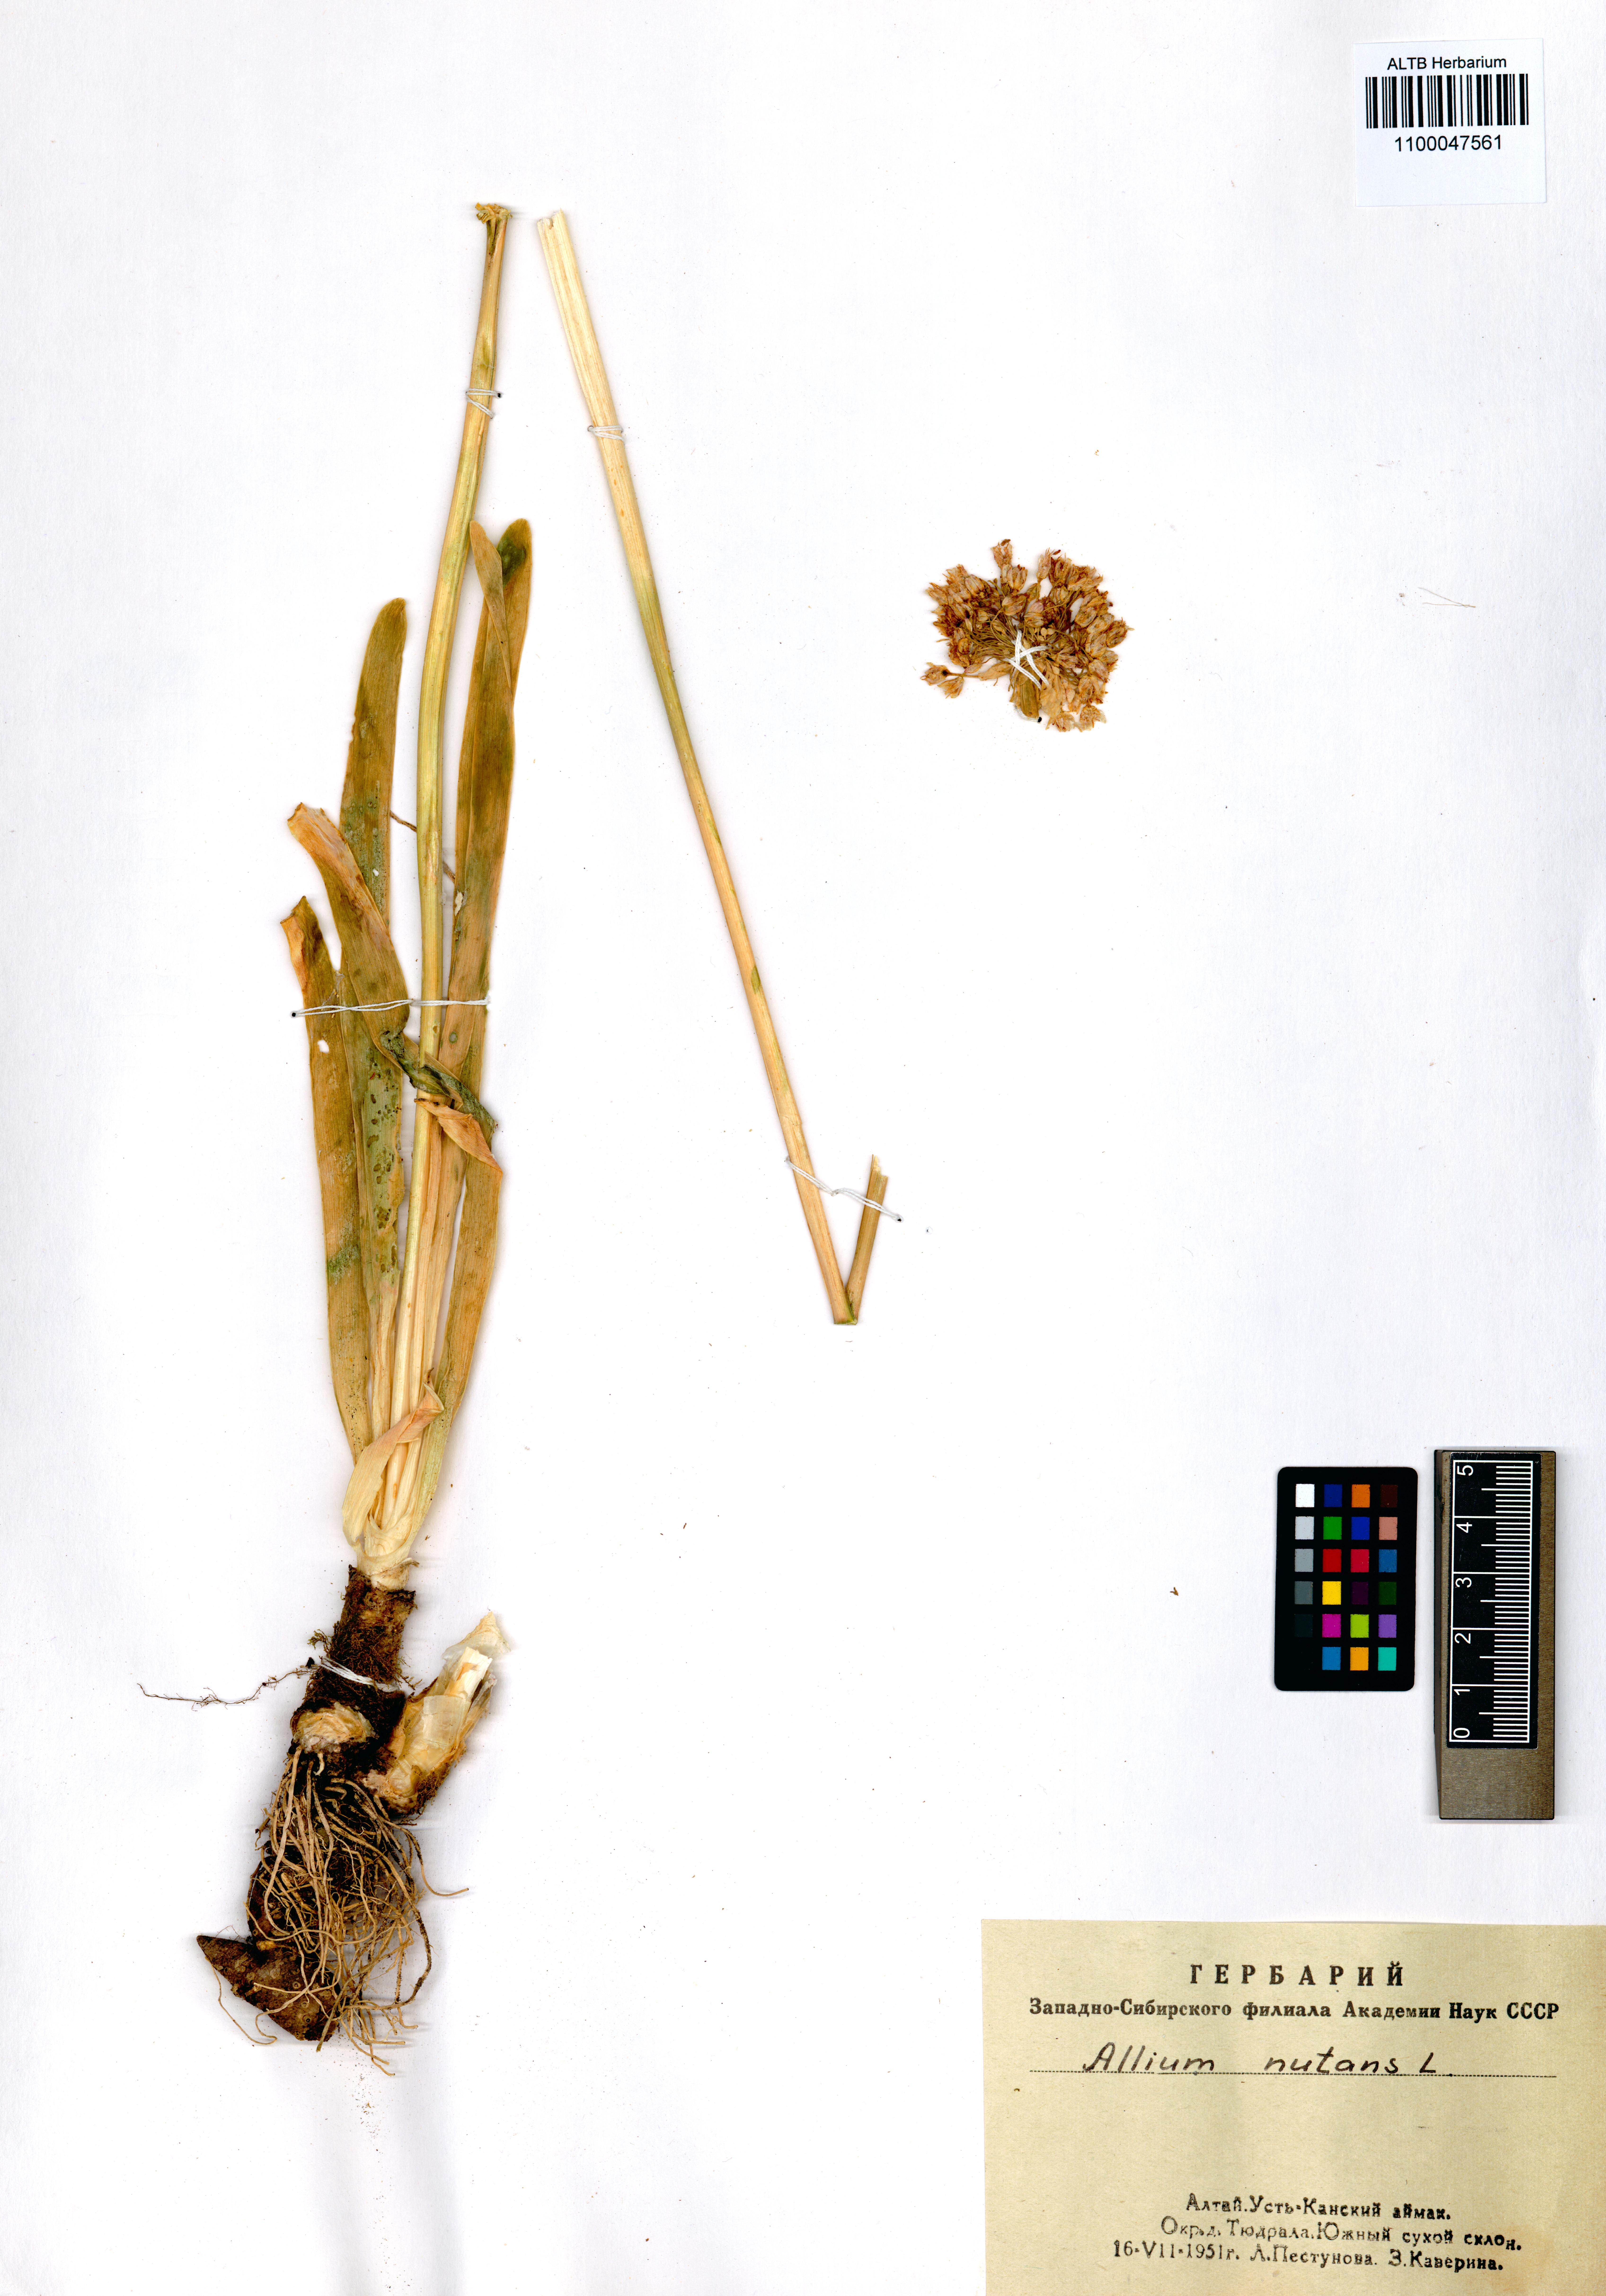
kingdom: Plantae
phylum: Tracheophyta
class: Liliopsida
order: Asparagales
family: Amaryllidaceae
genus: Allium
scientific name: Allium nutans
